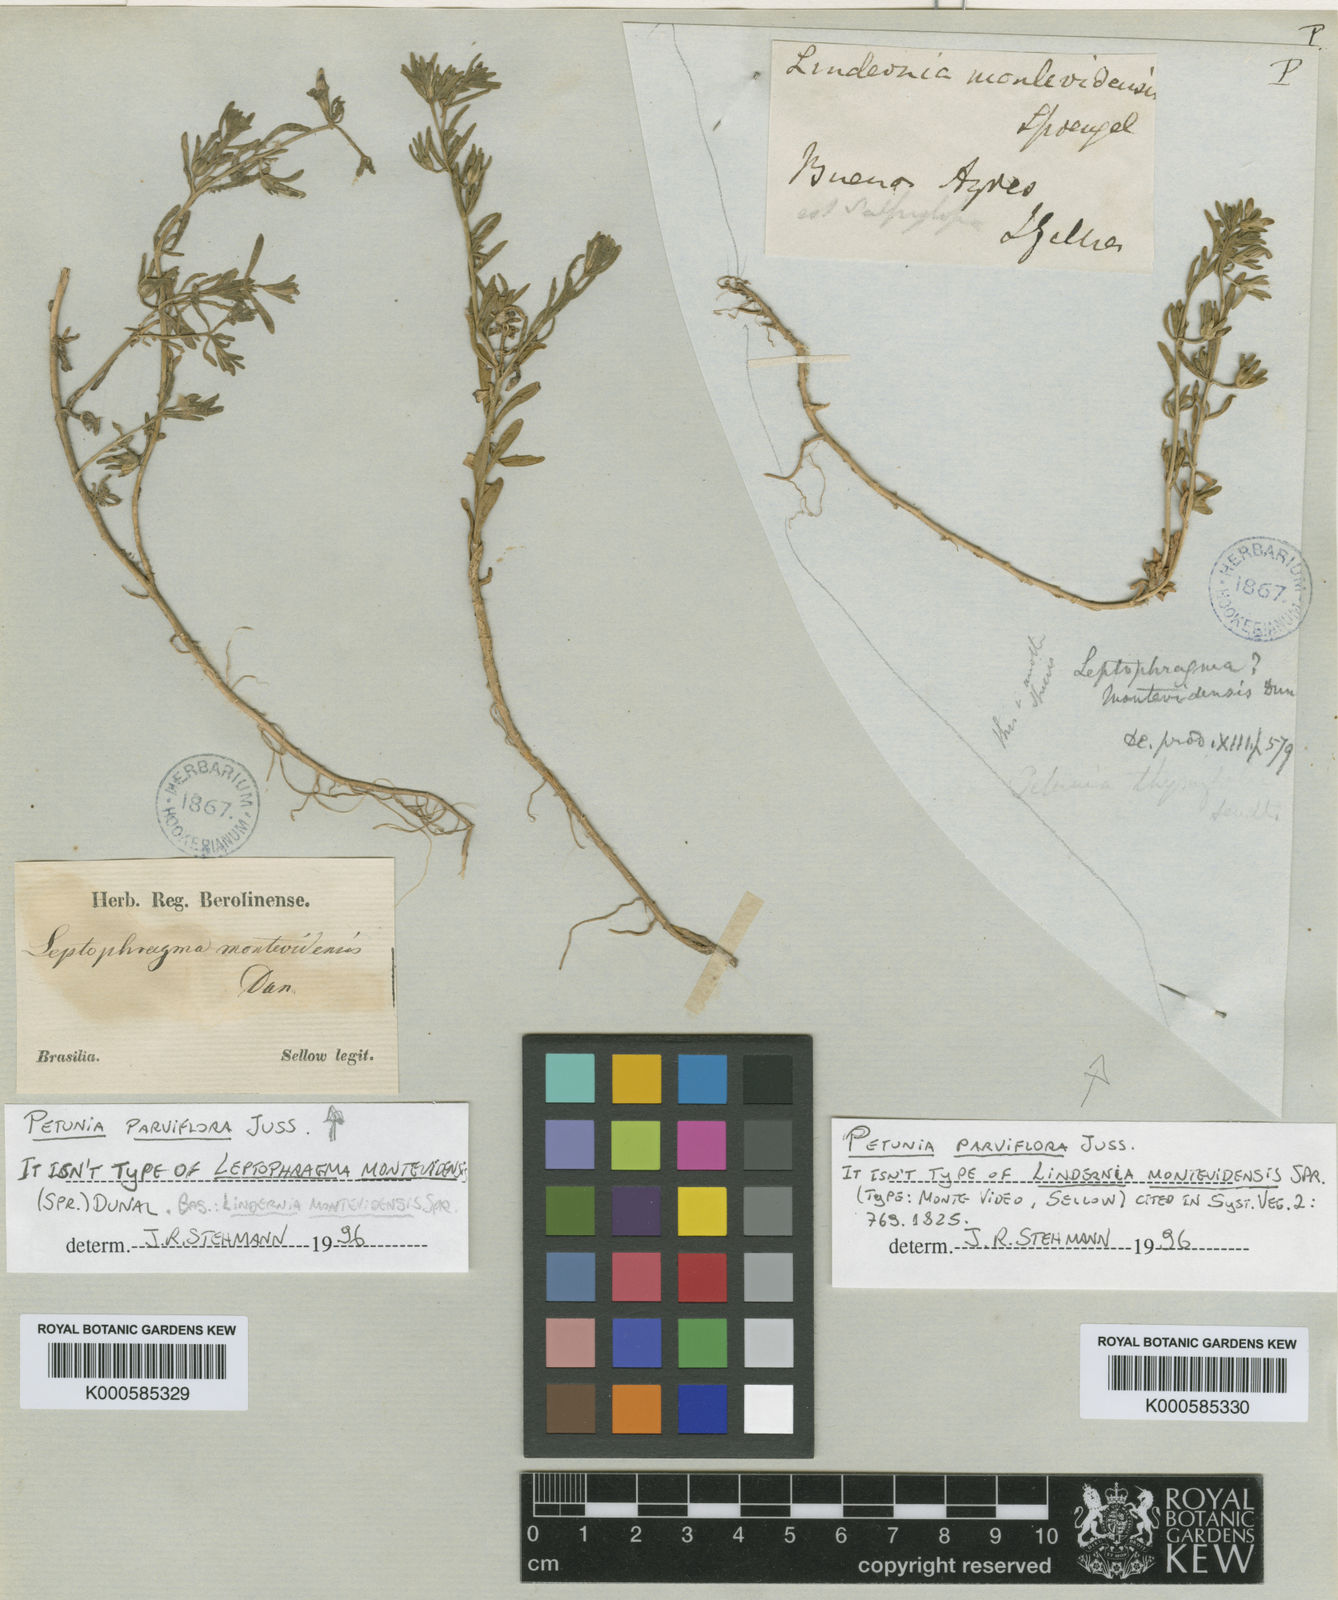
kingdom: Plantae
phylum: Tracheophyta
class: Magnoliopsida
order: Solanales
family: Solanaceae
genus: Calibrachoa
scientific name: Calibrachoa parviflora
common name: Seaside petunia
